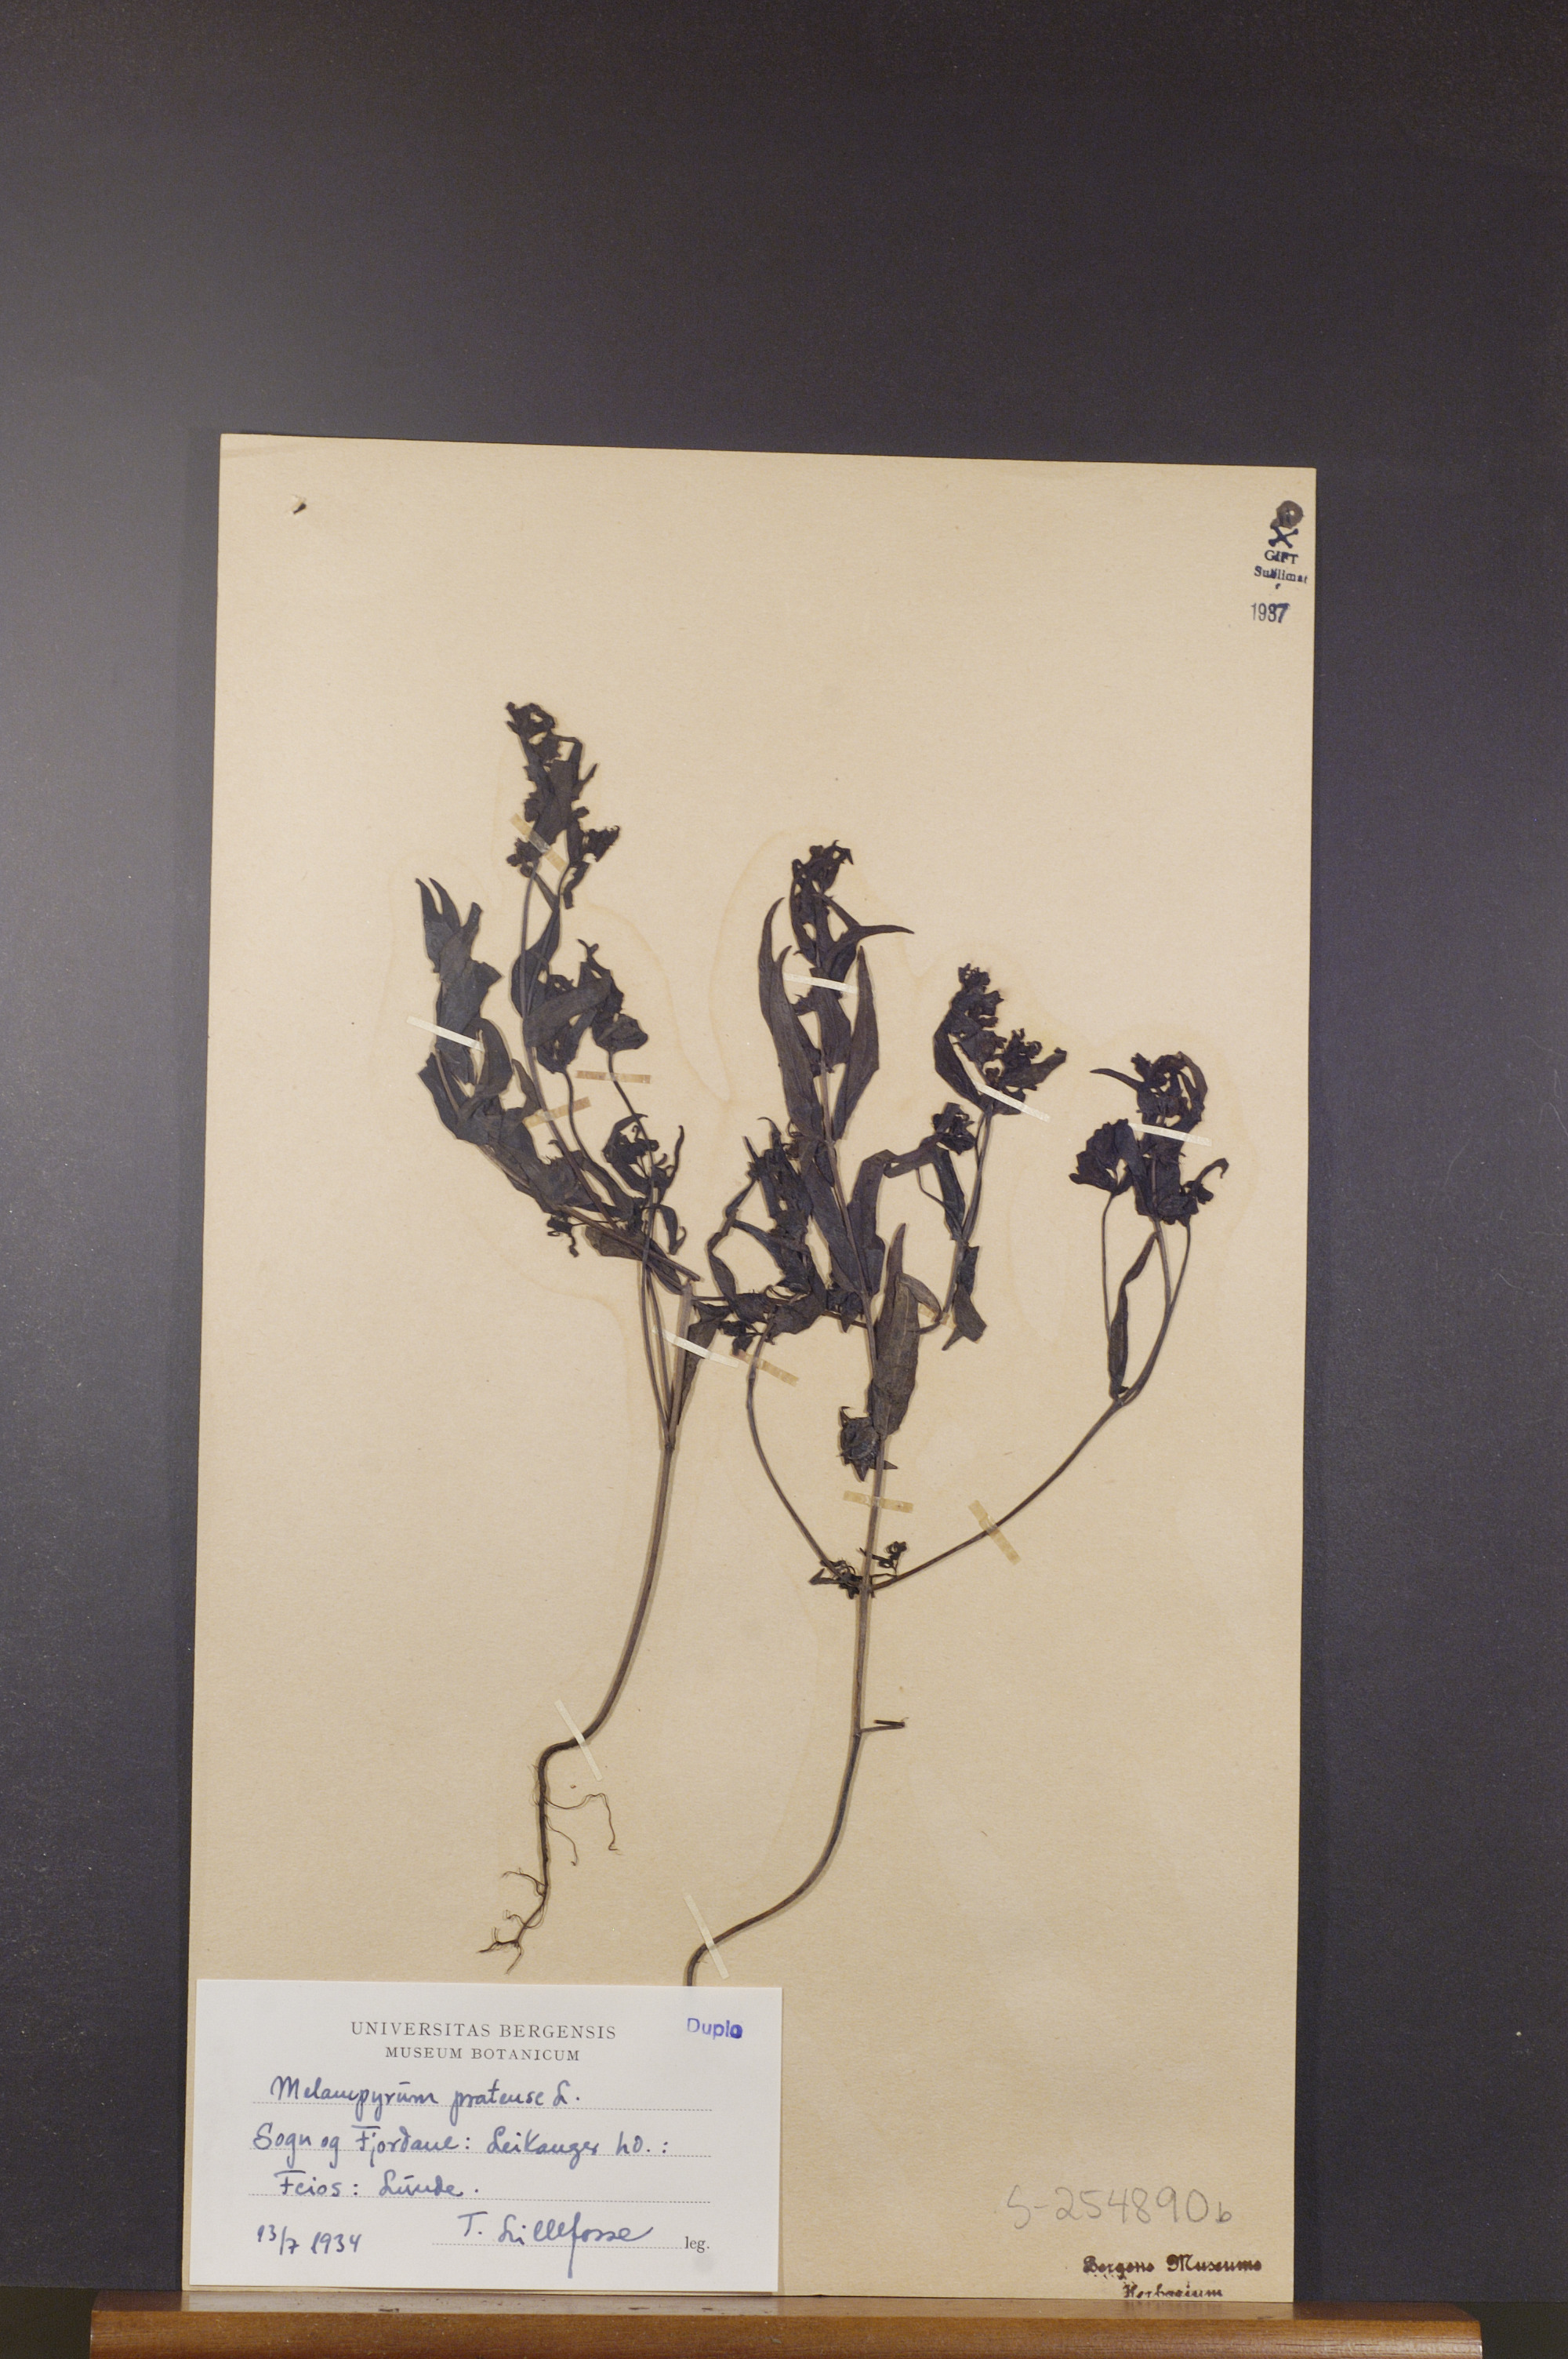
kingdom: Plantae
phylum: Tracheophyta
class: Magnoliopsida
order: Lamiales
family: Orobanchaceae
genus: Melampyrum
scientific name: Melampyrum pratense
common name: Common cow-wheat
